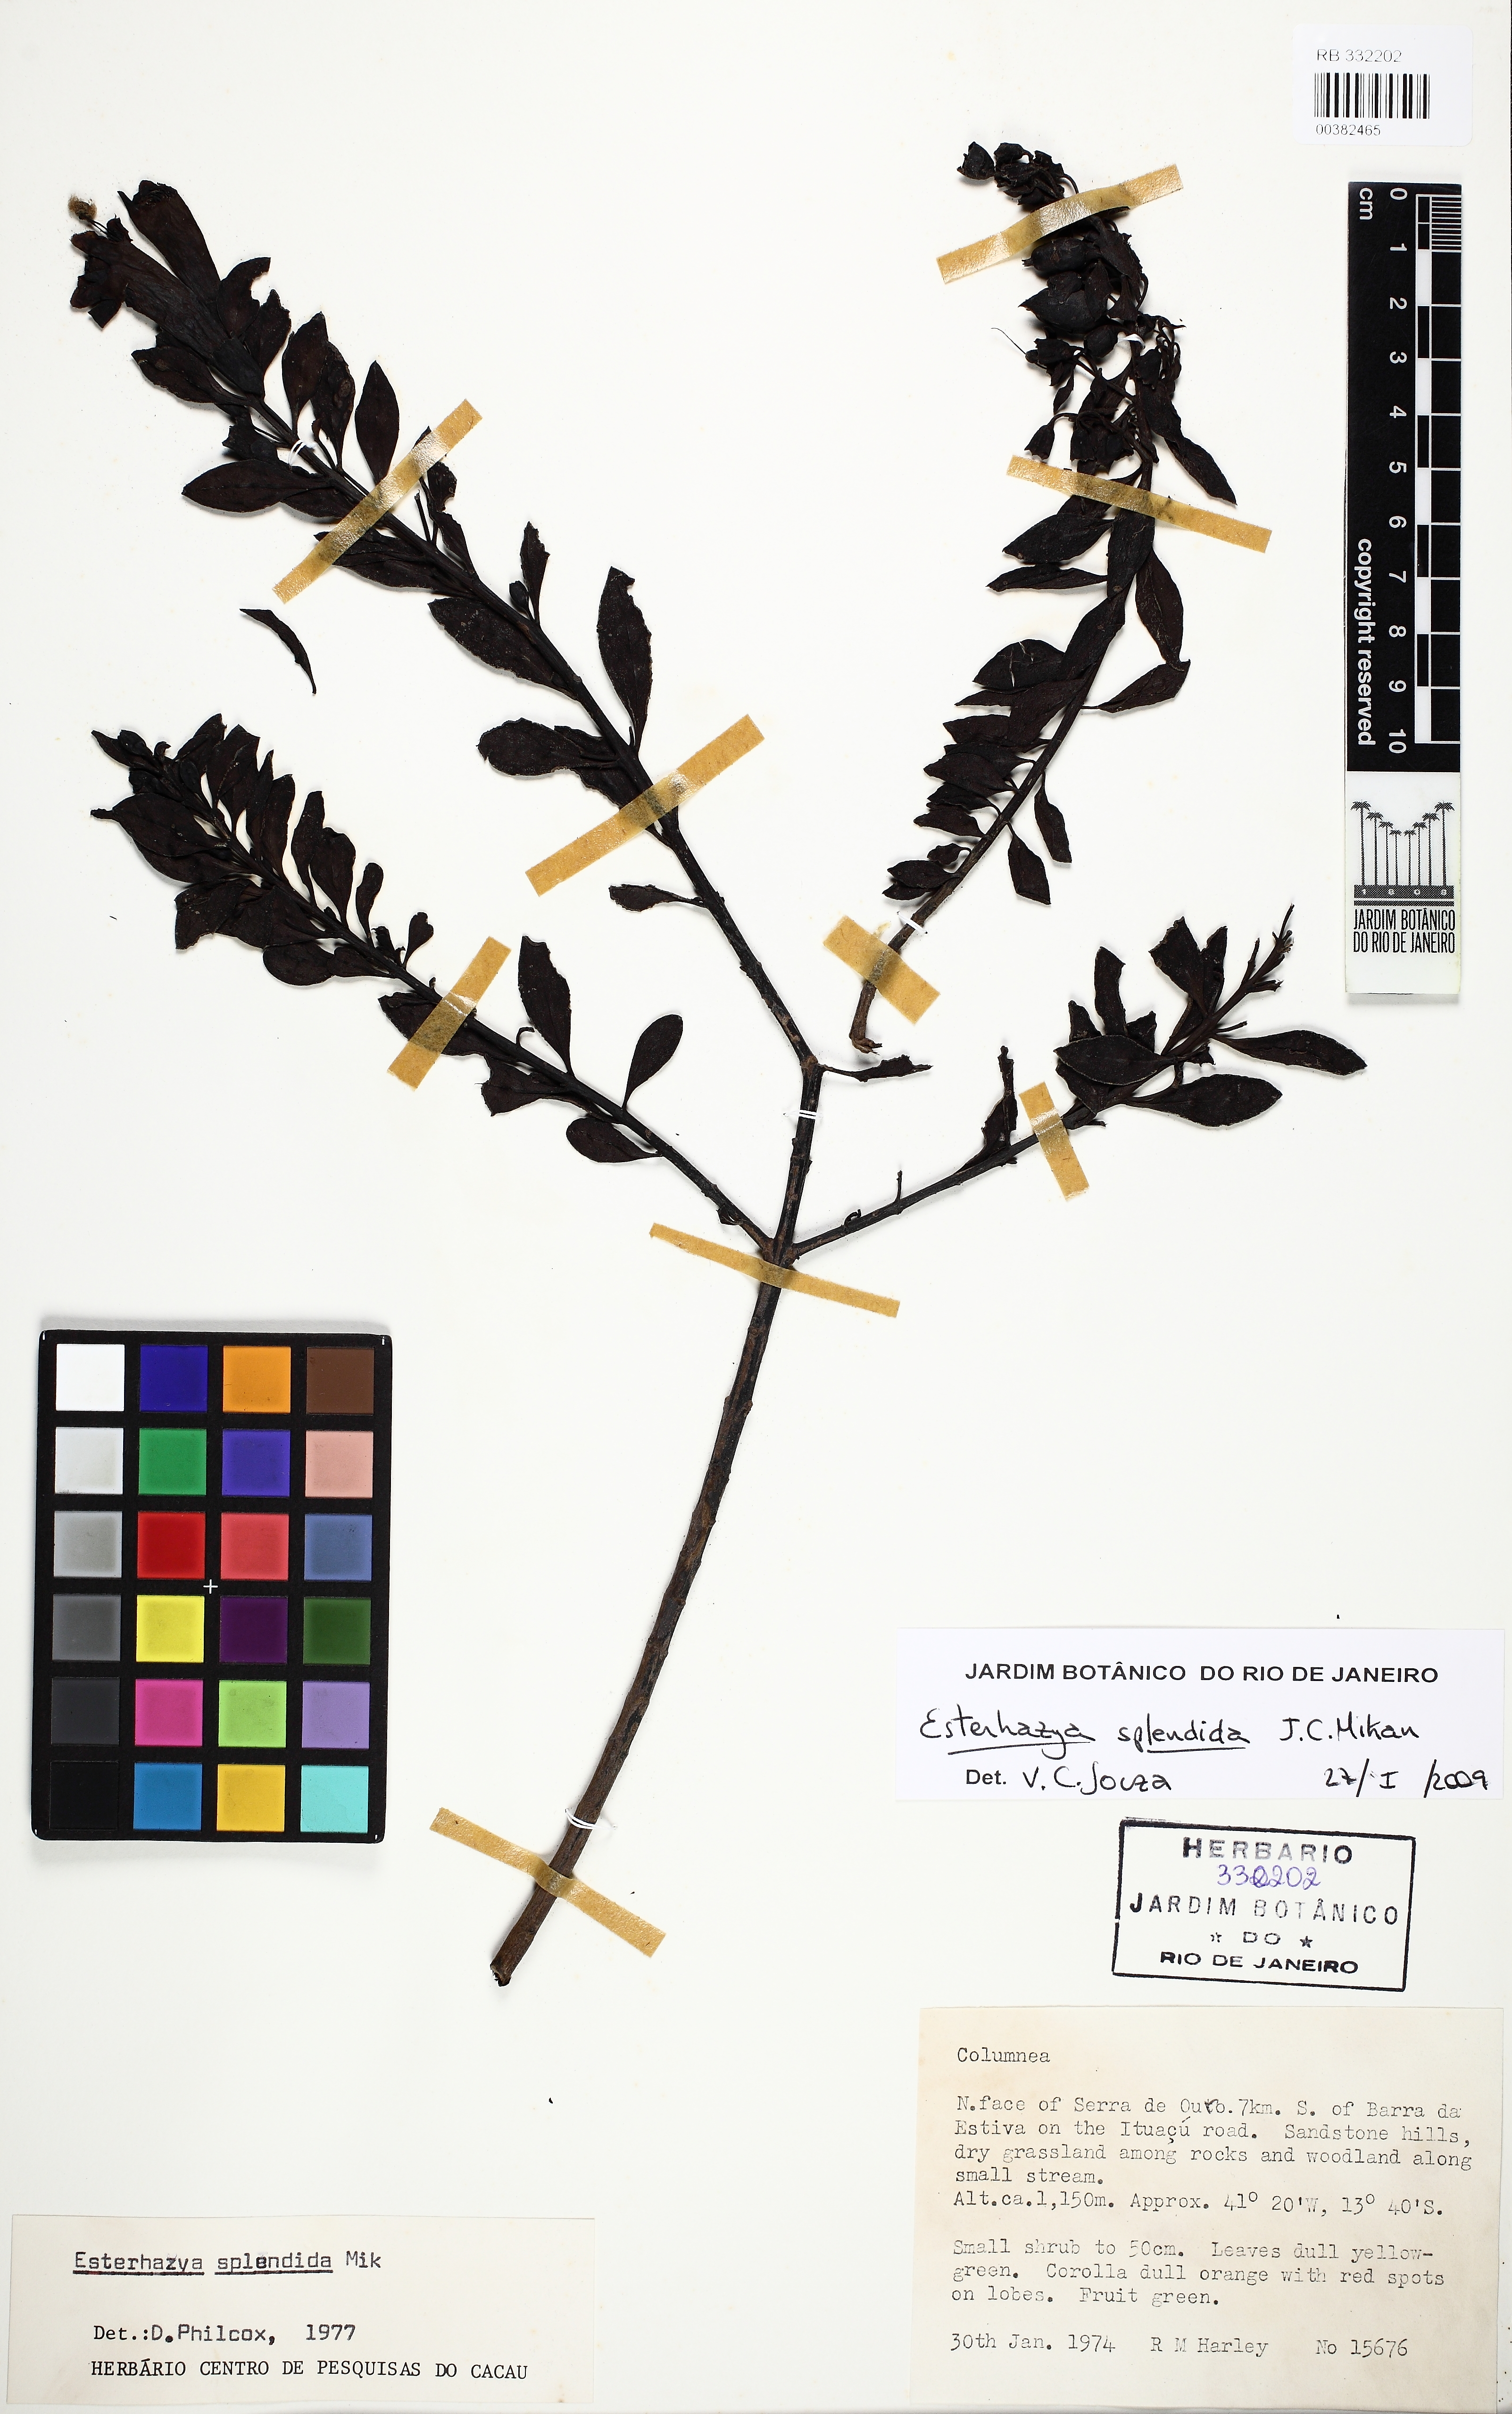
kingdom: Plantae
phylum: Tracheophyta
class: Magnoliopsida
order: Lamiales
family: Orobanchaceae
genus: Esterhazya
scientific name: Esterhazya splendida
